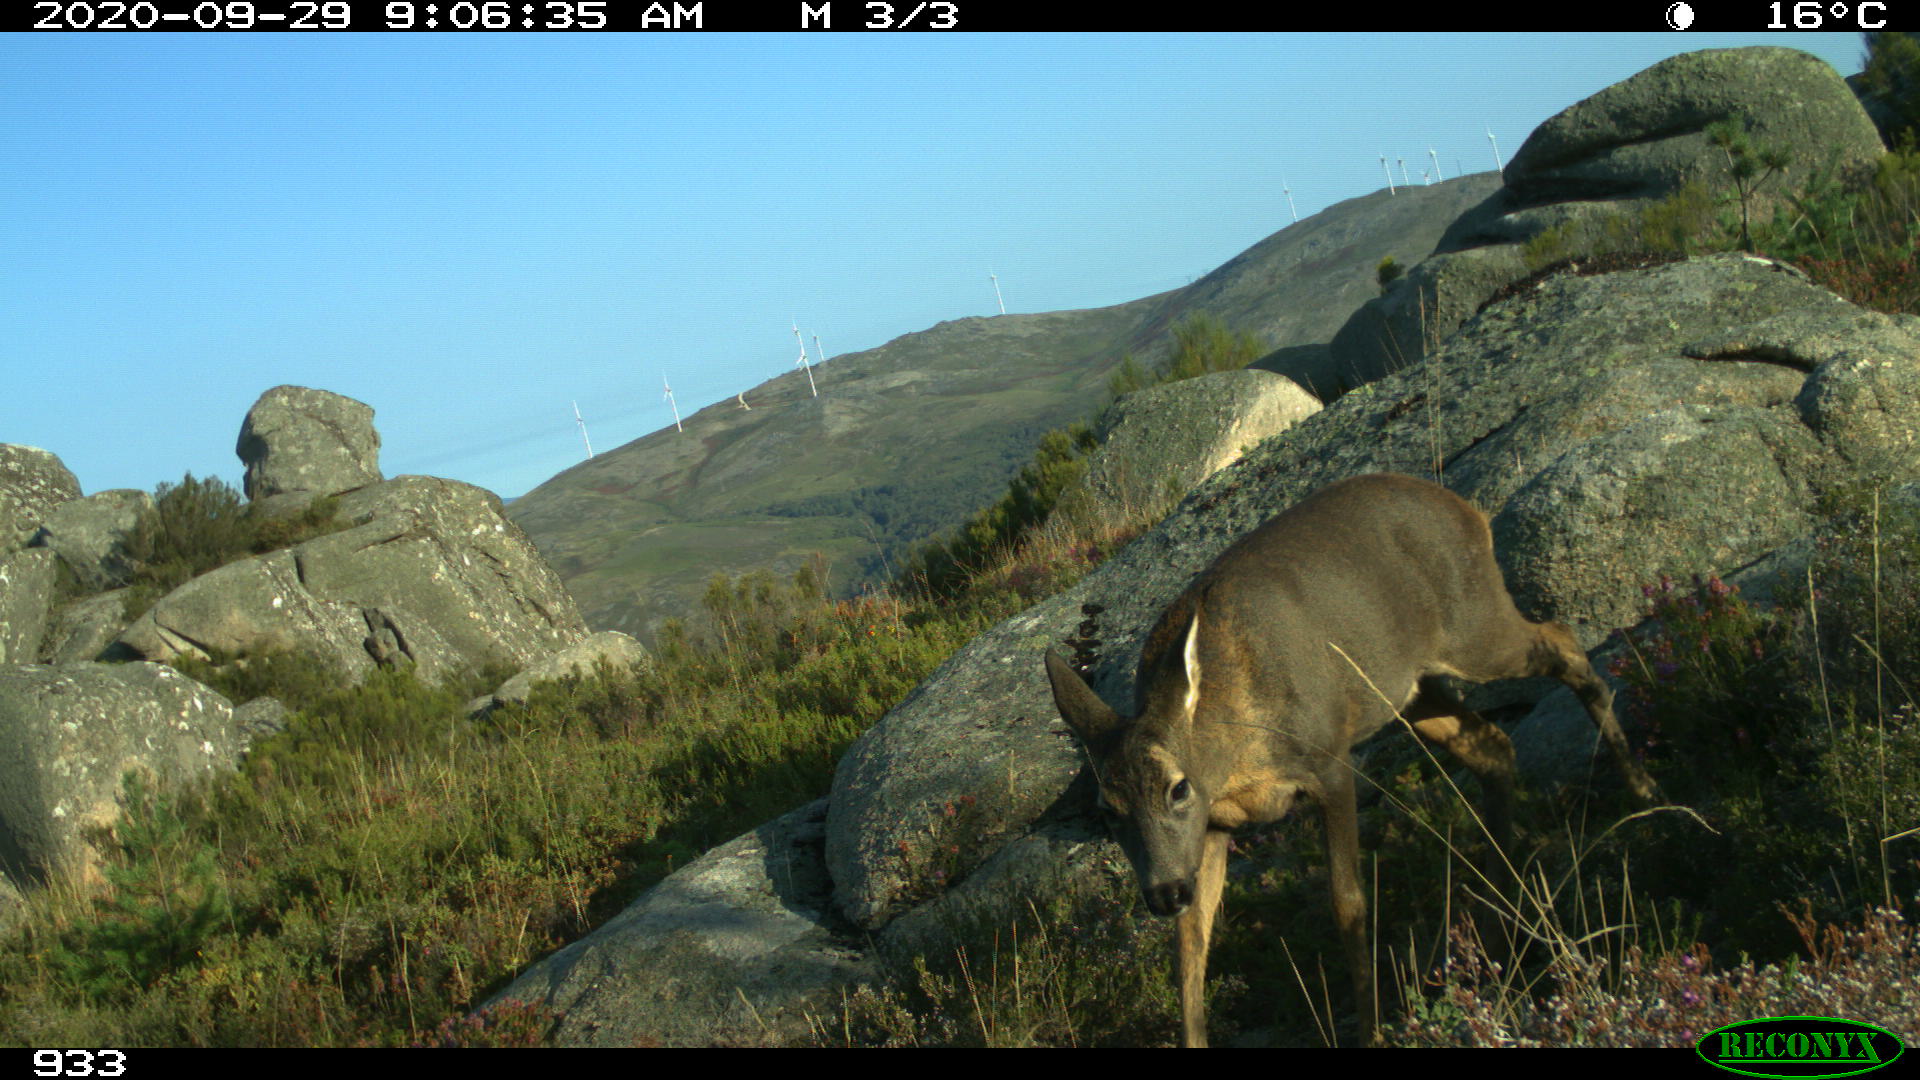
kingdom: Animalia
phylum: Chordata
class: Mammalia
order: Artiodactyla
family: Cervidae
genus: Capreolus
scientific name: Capreolus capreolus
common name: Western roe deer
